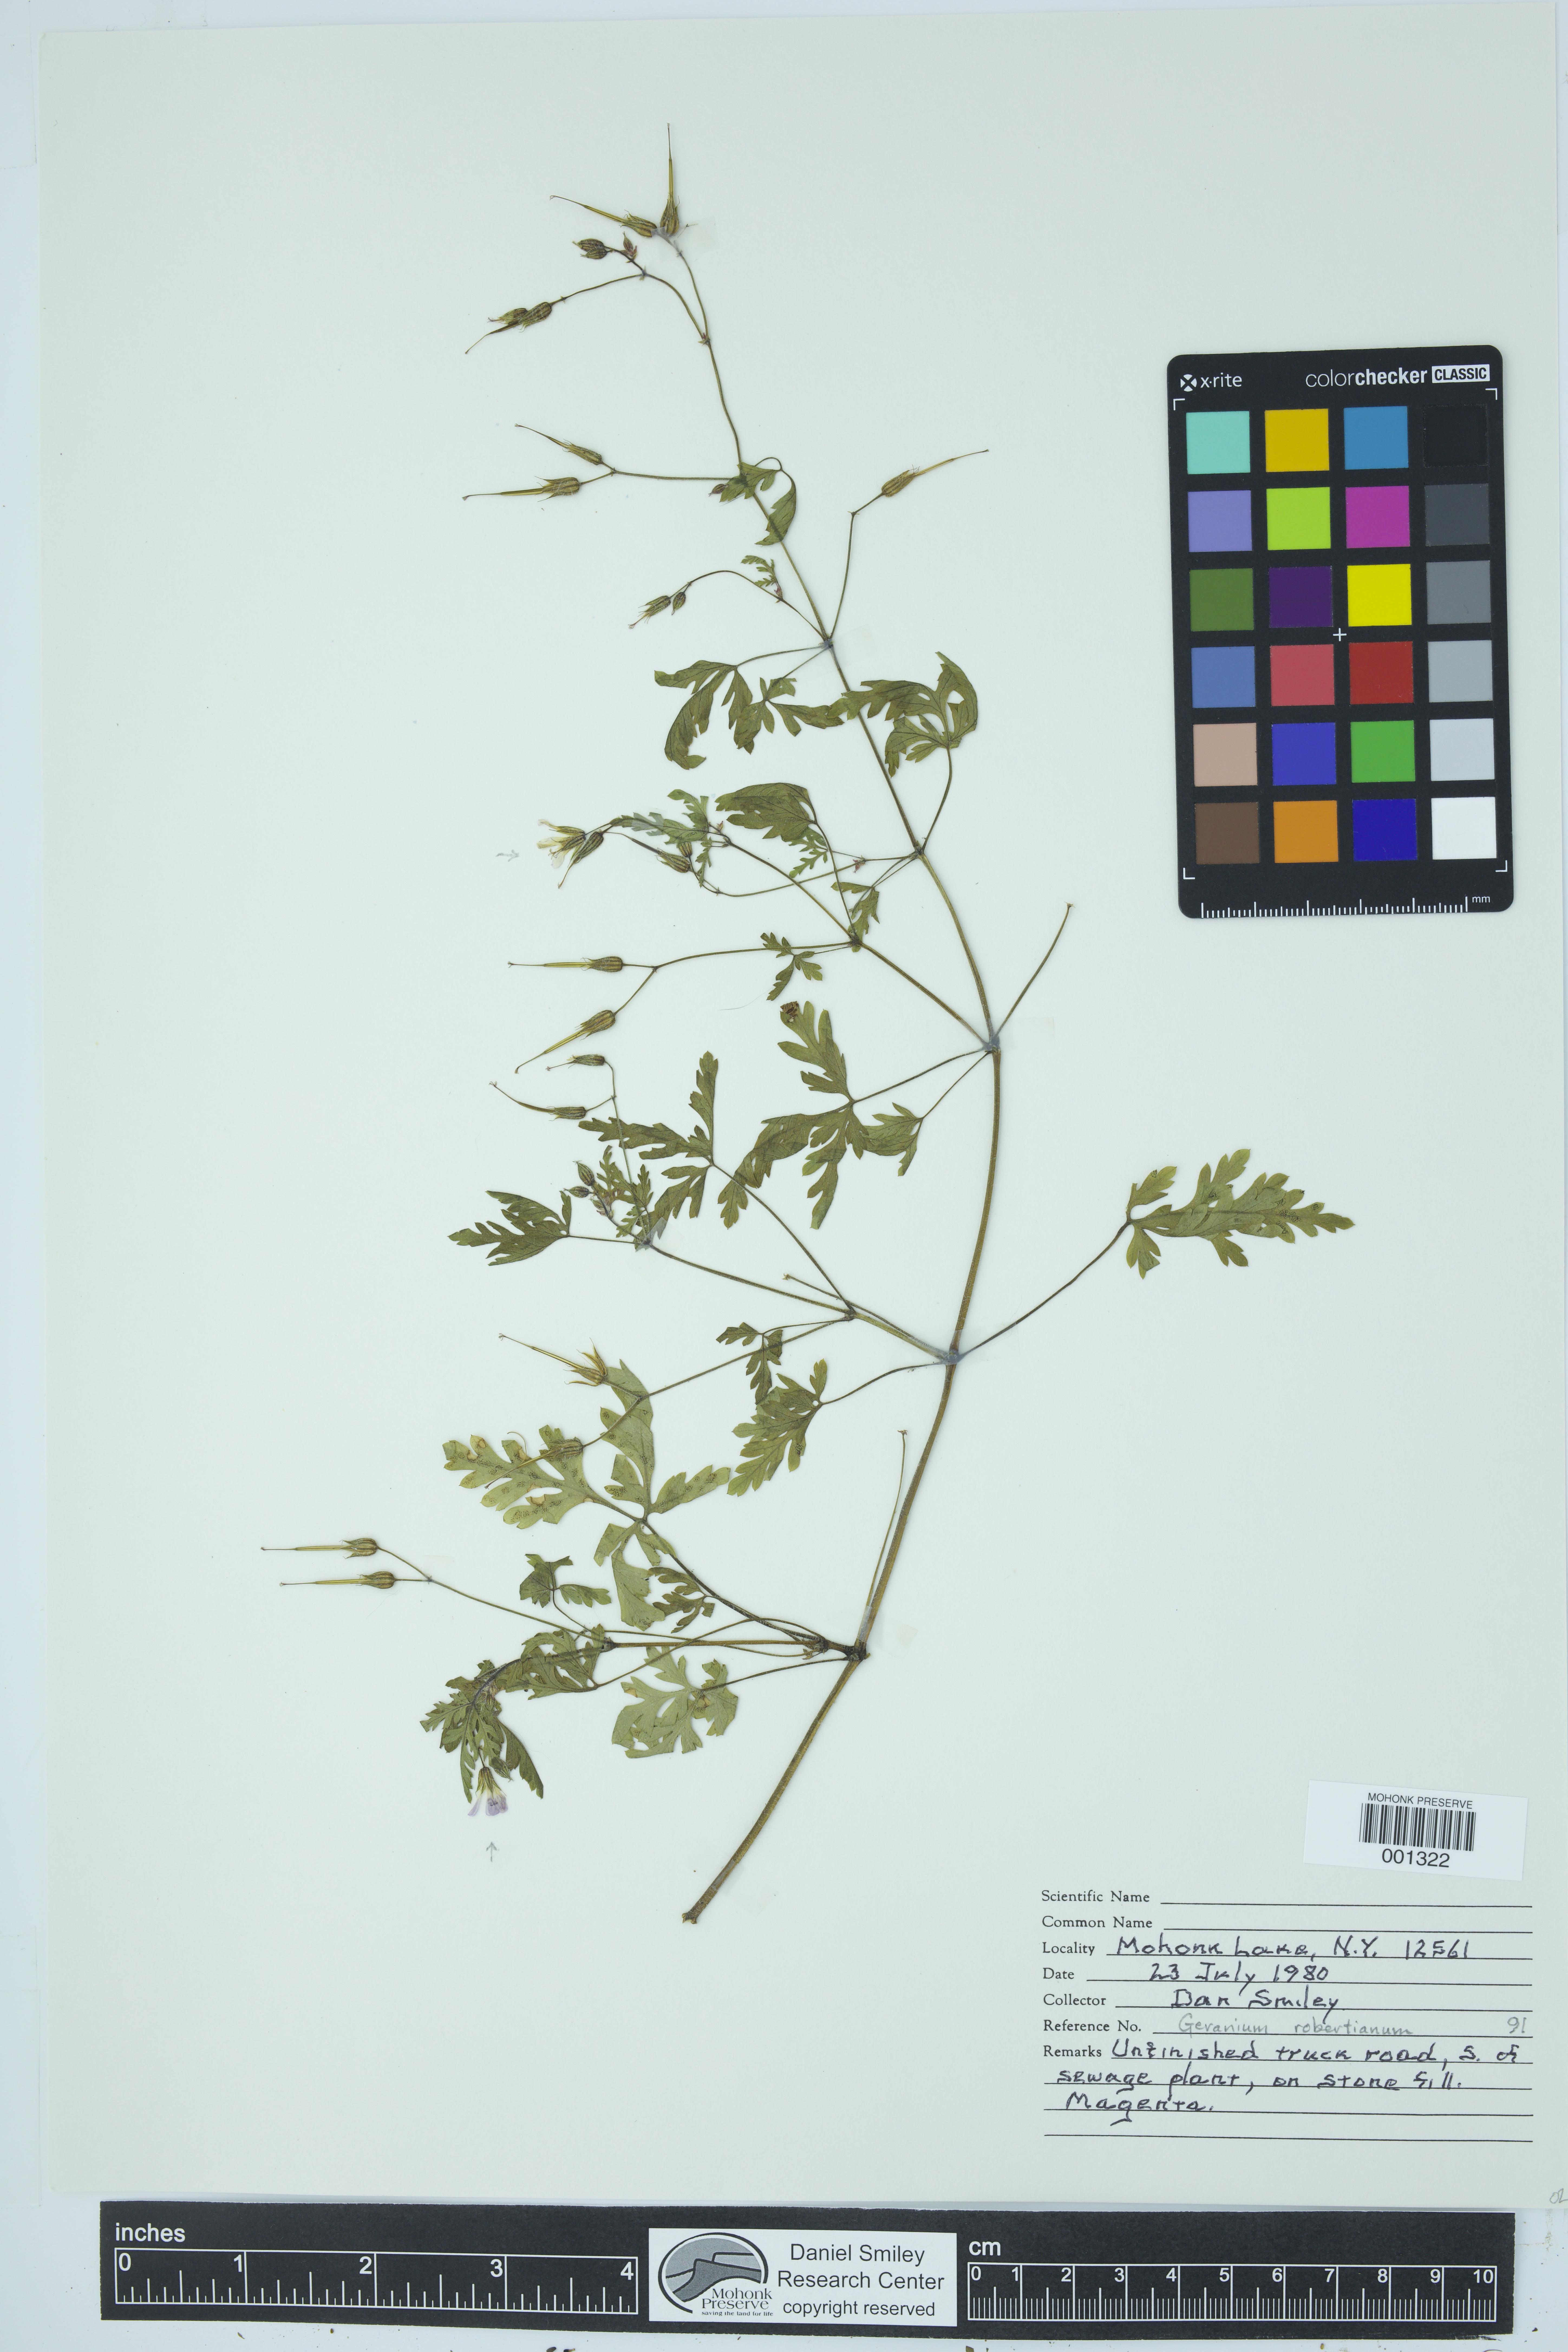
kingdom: Plantae
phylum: Tracheophyta
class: Magnoliopsida
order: Geraniales
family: Geraniaceae
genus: Geranium
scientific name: Geranium robertianum
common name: Herb-robert
